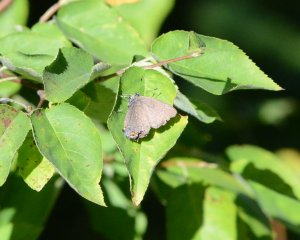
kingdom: Animalia
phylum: Arthropoda
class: Insecta
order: Lepidoptera
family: Lycaenidae
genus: Satyrium
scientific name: Satyrium calanus
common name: Banded Hairstreak
